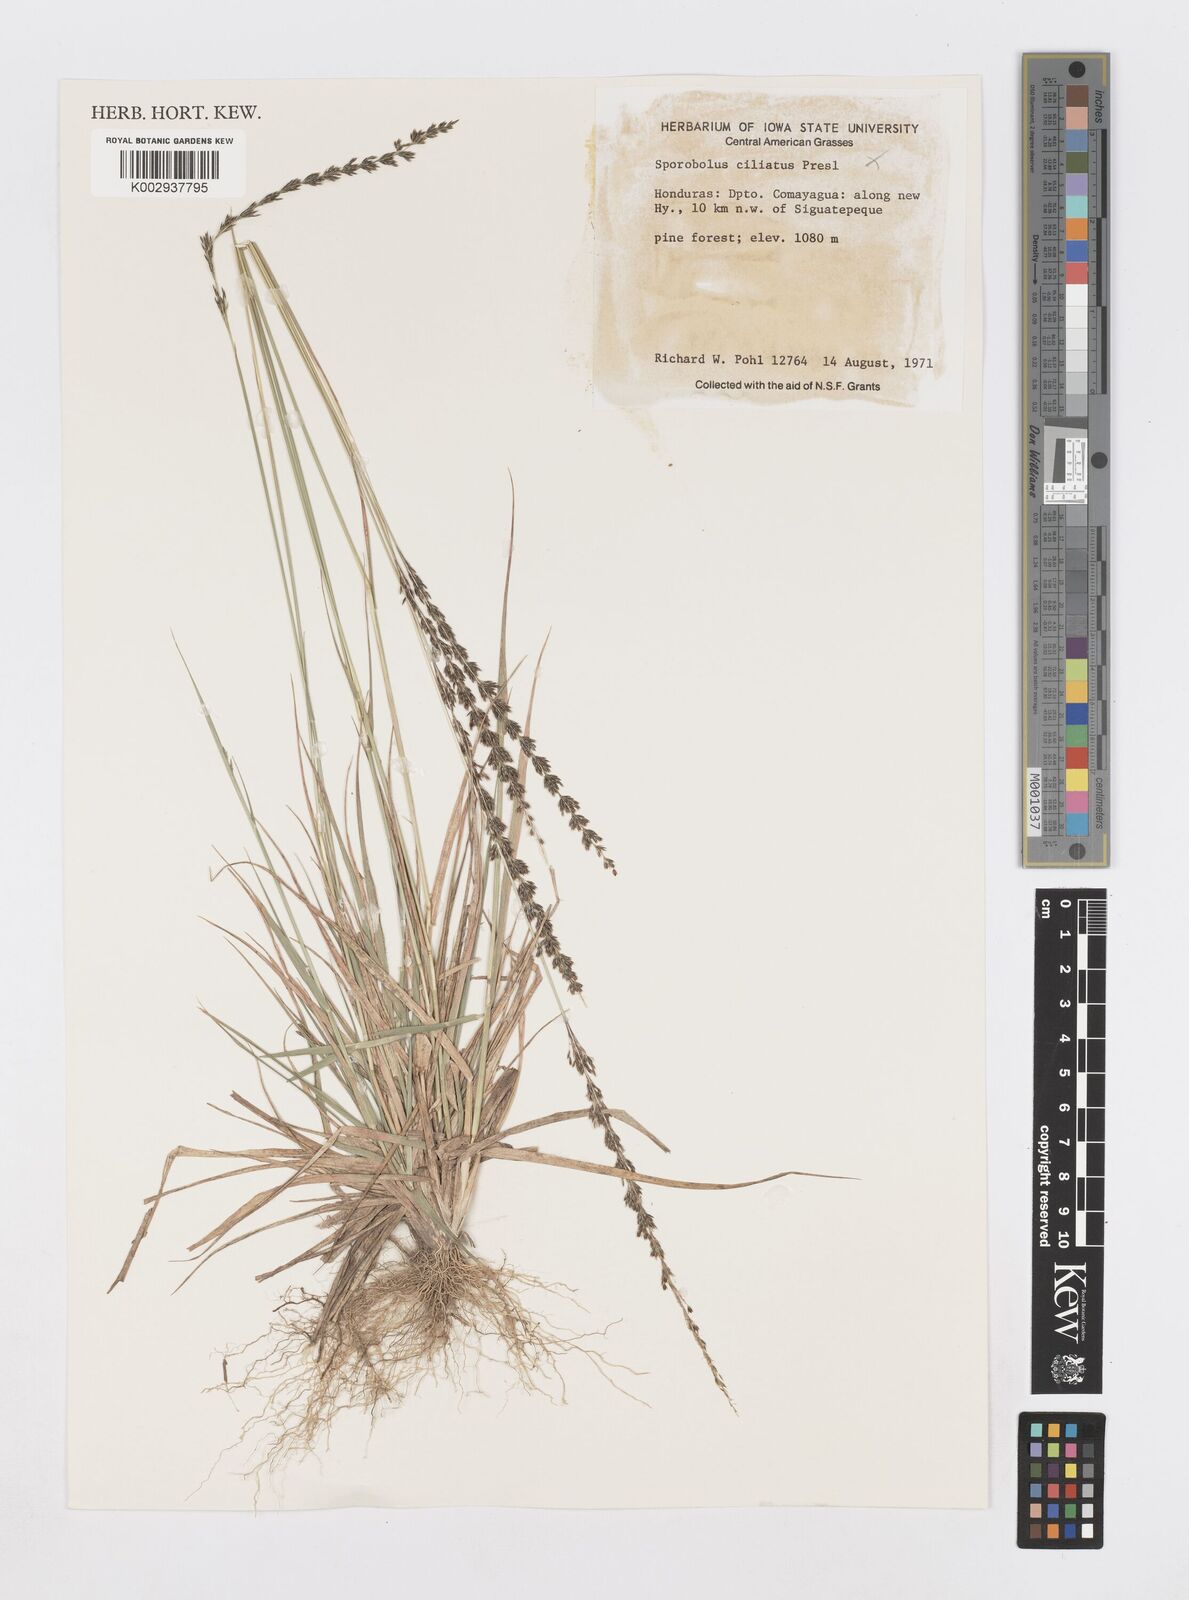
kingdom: Plantae
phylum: Tracheophyta
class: Liliopsida
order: Poales
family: Poaceae
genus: Sporobolus
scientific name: Sporobolus purpurascens
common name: Purple dropseed
